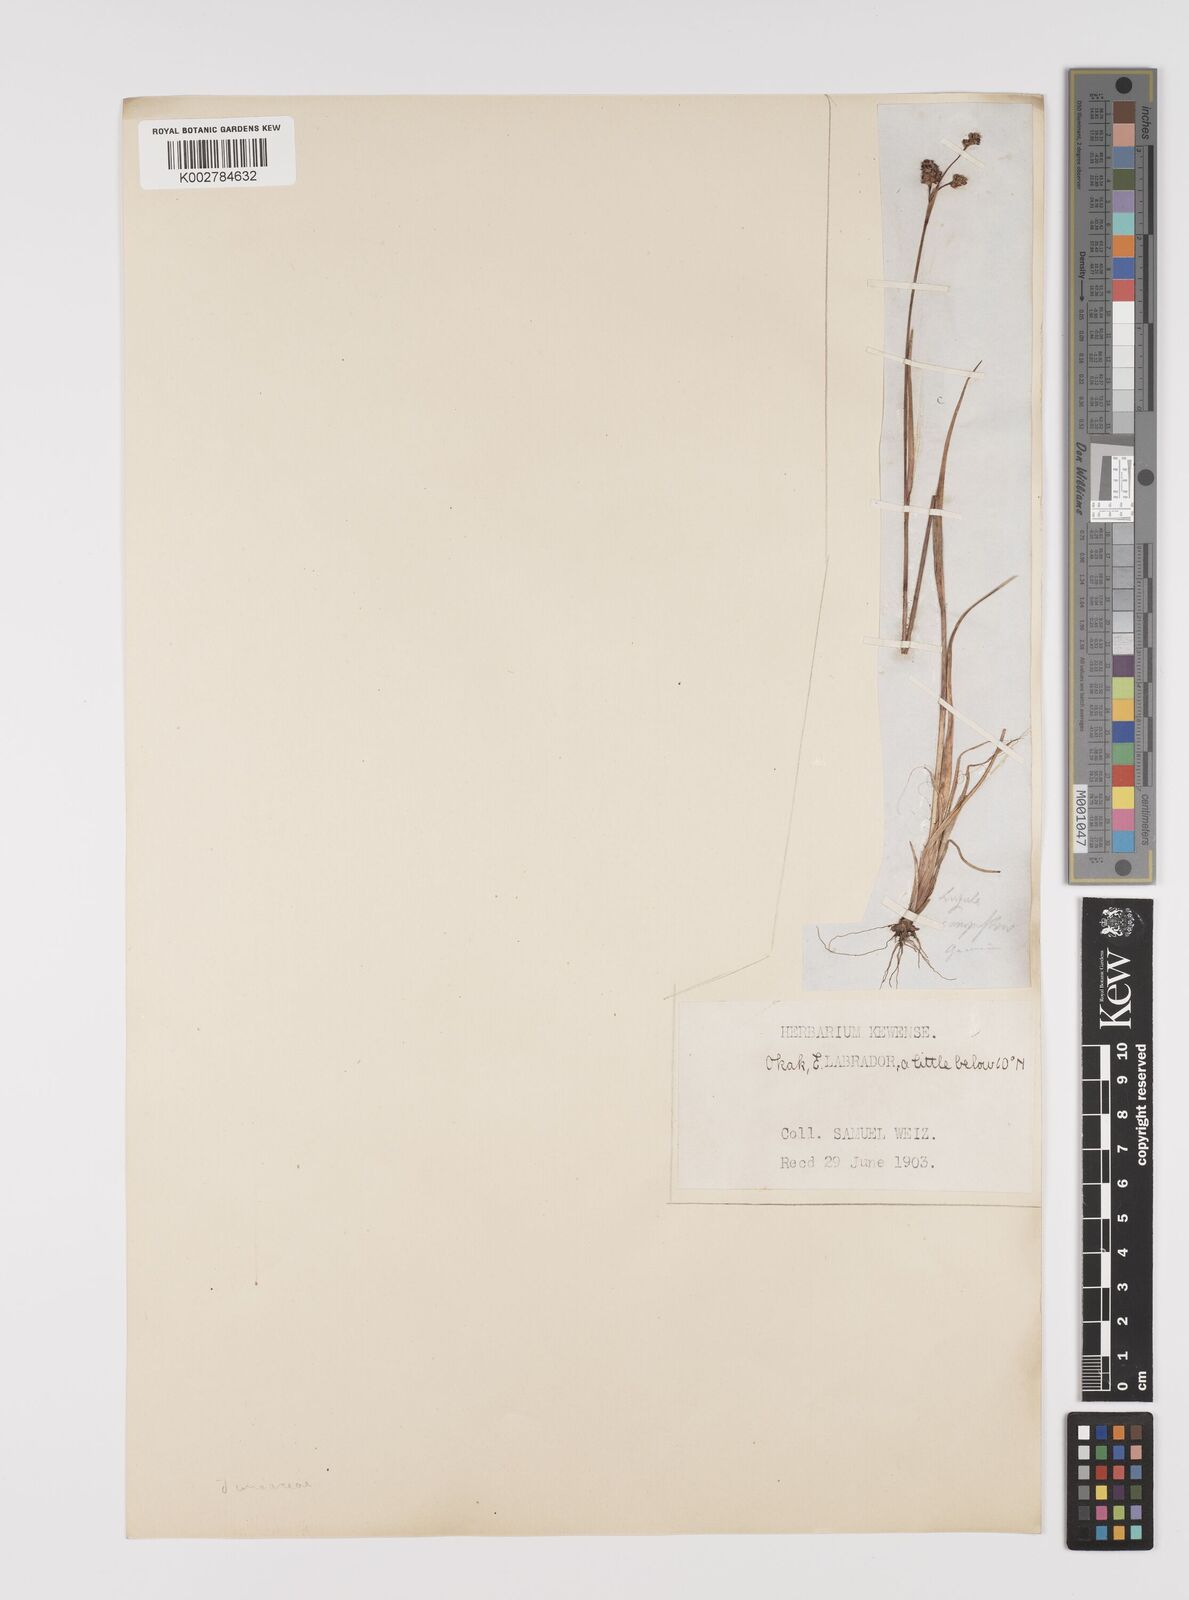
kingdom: Plantae
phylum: Tracheophyta
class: Liliopsida
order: Poales
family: Juncaceae
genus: Luzula
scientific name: Luzula campestris
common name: Field wood-rush
